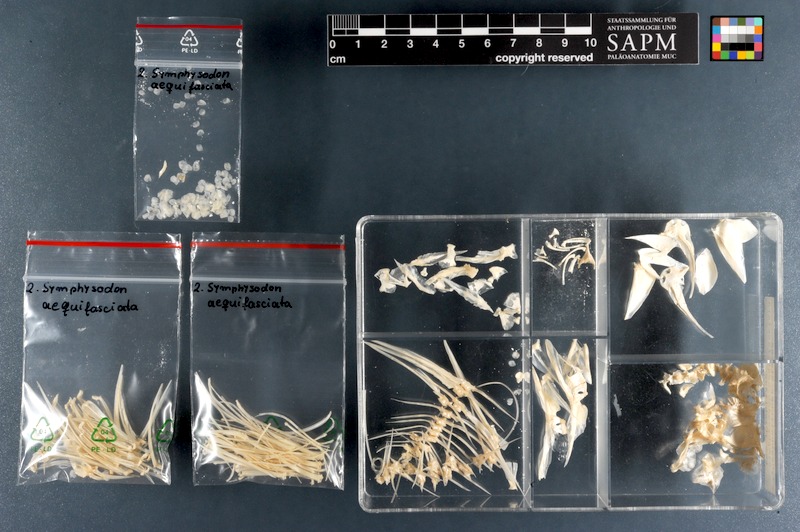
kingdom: Animalia
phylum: Chordata
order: Perciformes
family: Cichlidae
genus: Symphysodon
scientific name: Symphysodon aequifasciatus
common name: Blue discus
